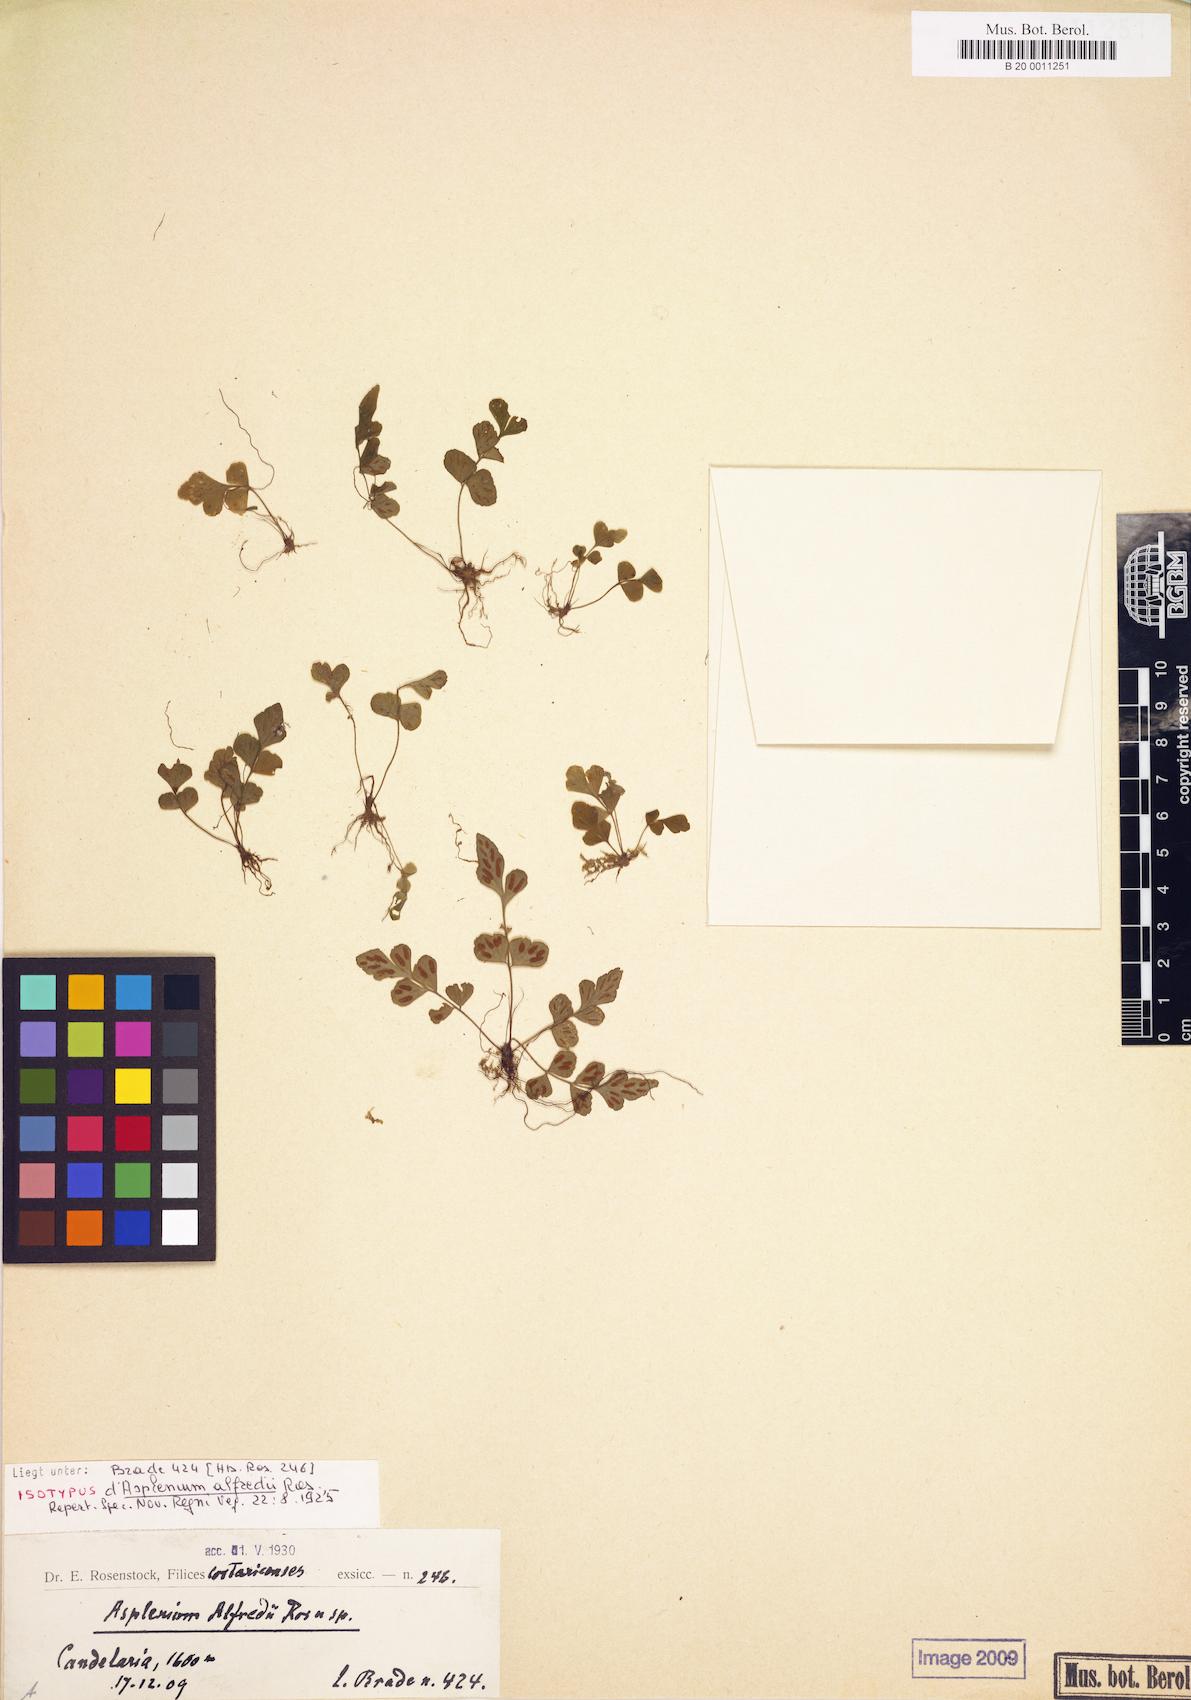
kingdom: Plantae
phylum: Tracheophyta
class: Polypodiopsida
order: Polypodiales
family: Aspleniaceae
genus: Asplenium
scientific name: Asplenium virillae
